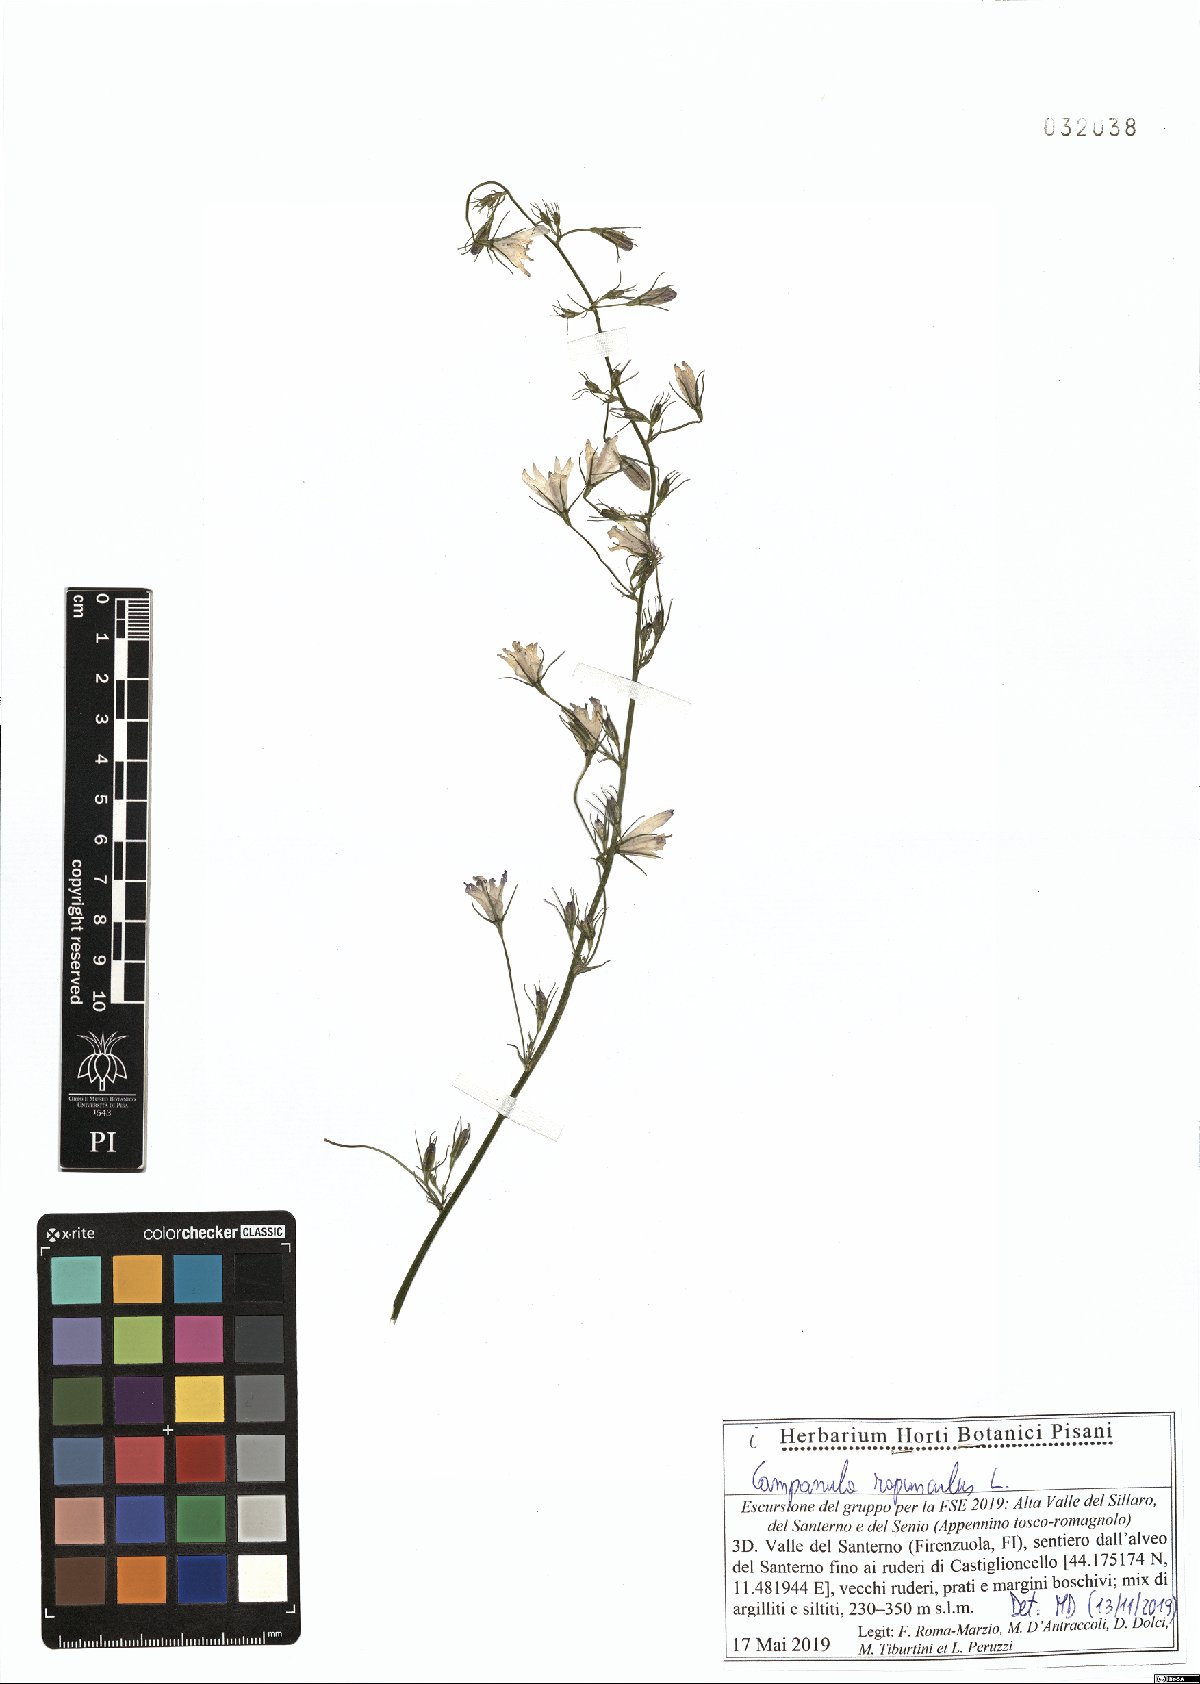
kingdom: Plantae
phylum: Tracheophyta
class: Magnoliopsida
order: Asterales
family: Campanulaceae
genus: Campanula
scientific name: Campanula rapunculus
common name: Rampion bellflower
